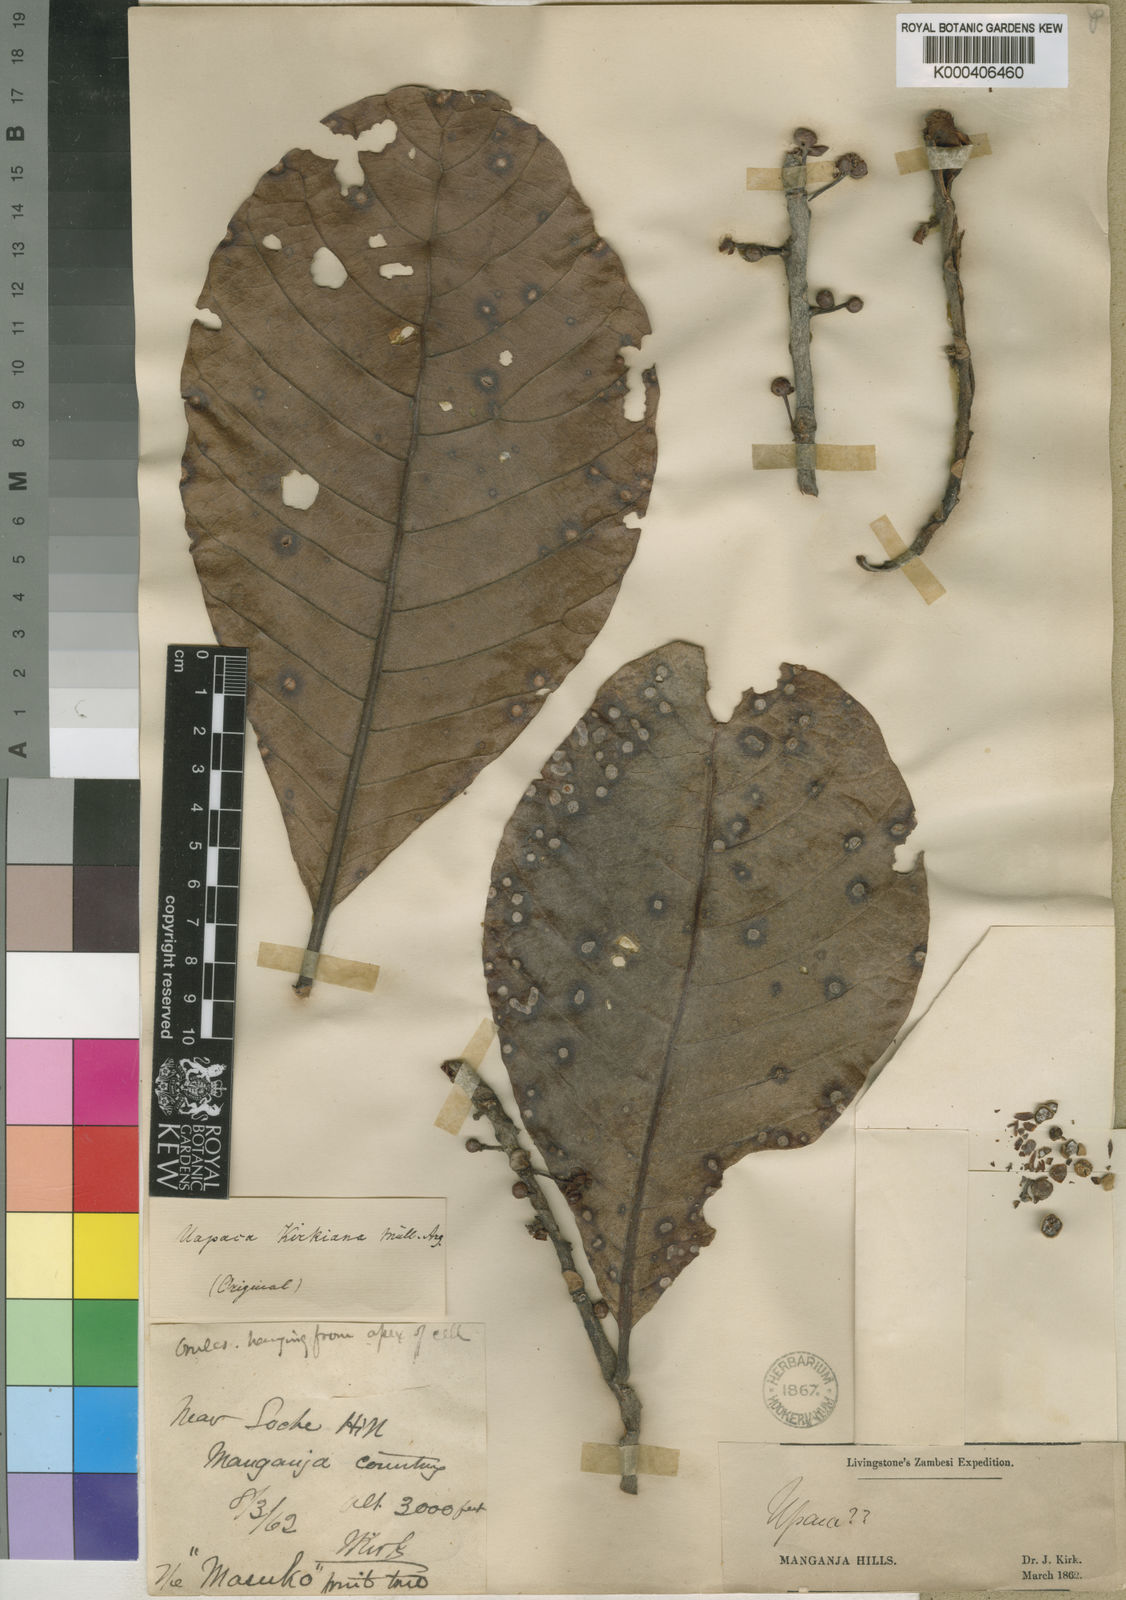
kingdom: Plantae
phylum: Tracheophyta
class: Magnoliopsida
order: Malpighiales
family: Phyllanthaceae
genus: Uapaca
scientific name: Uapaca
